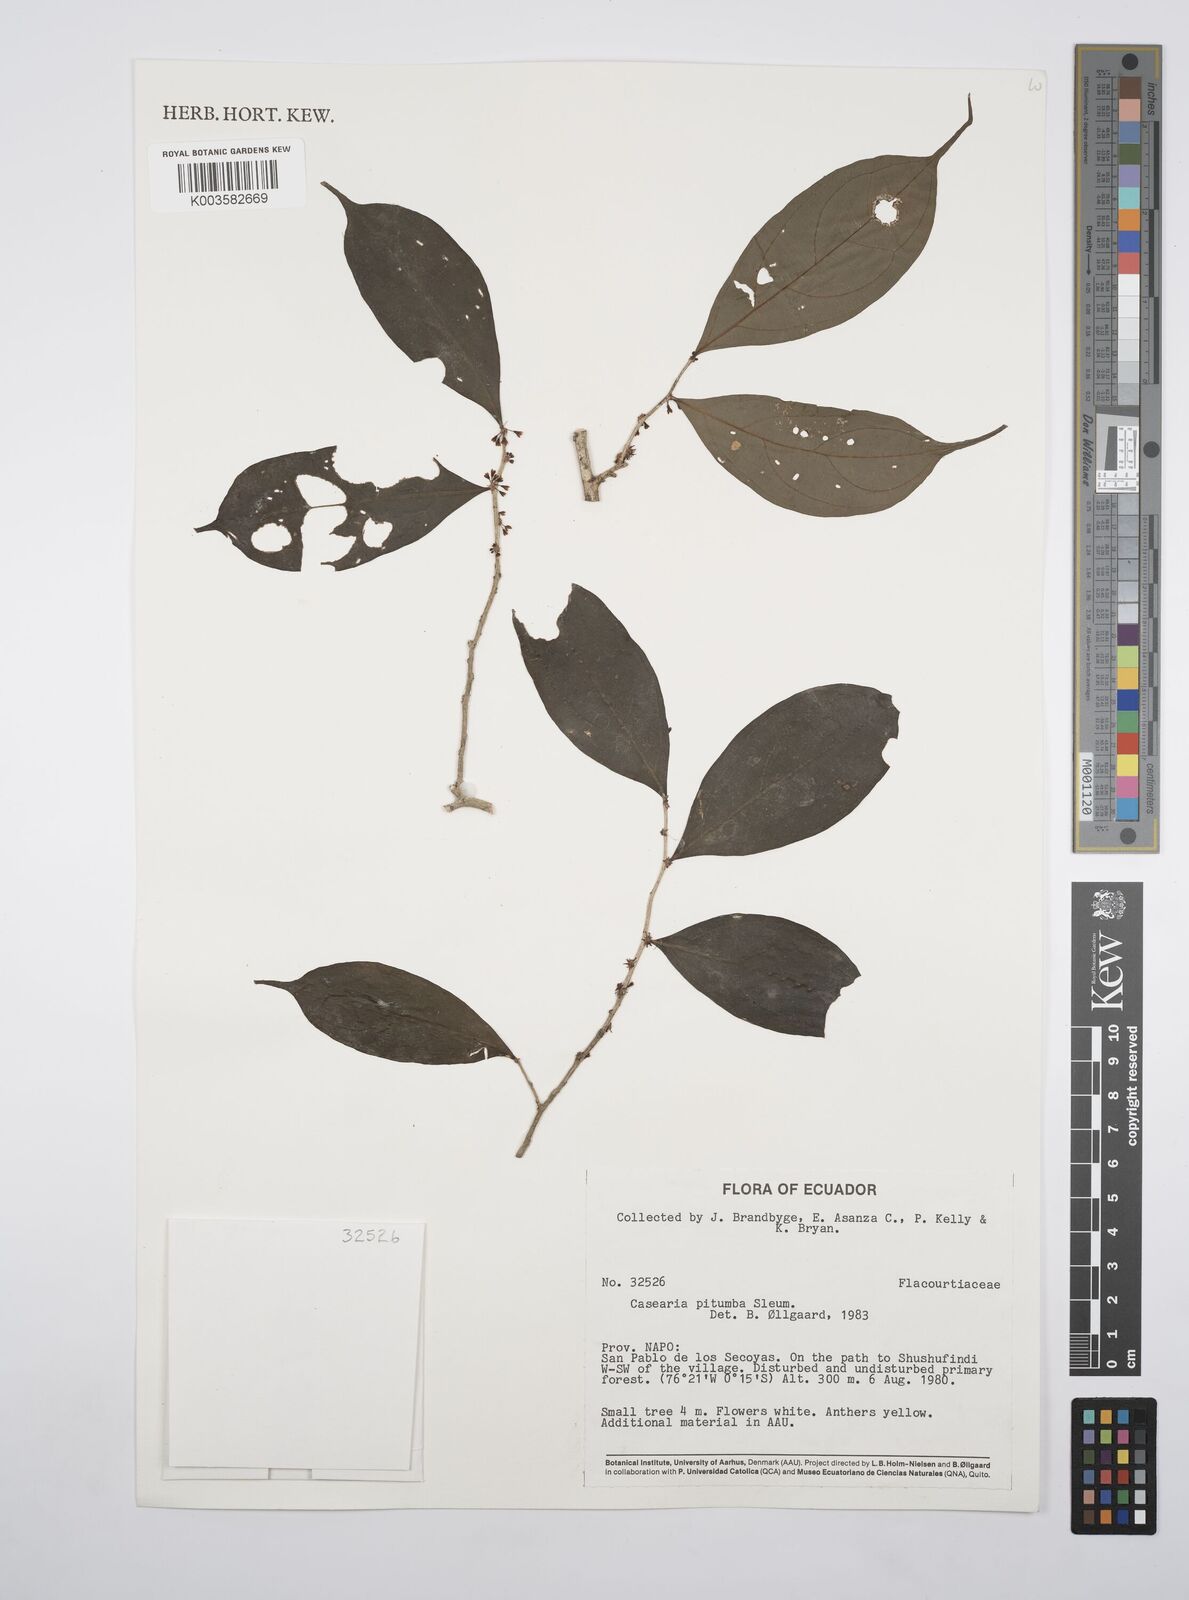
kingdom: Plantae
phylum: Tracheophyta
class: Magnoliopsida
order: Malpighiales
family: Salicaceae
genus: Casearia
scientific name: Casearia pitumba
